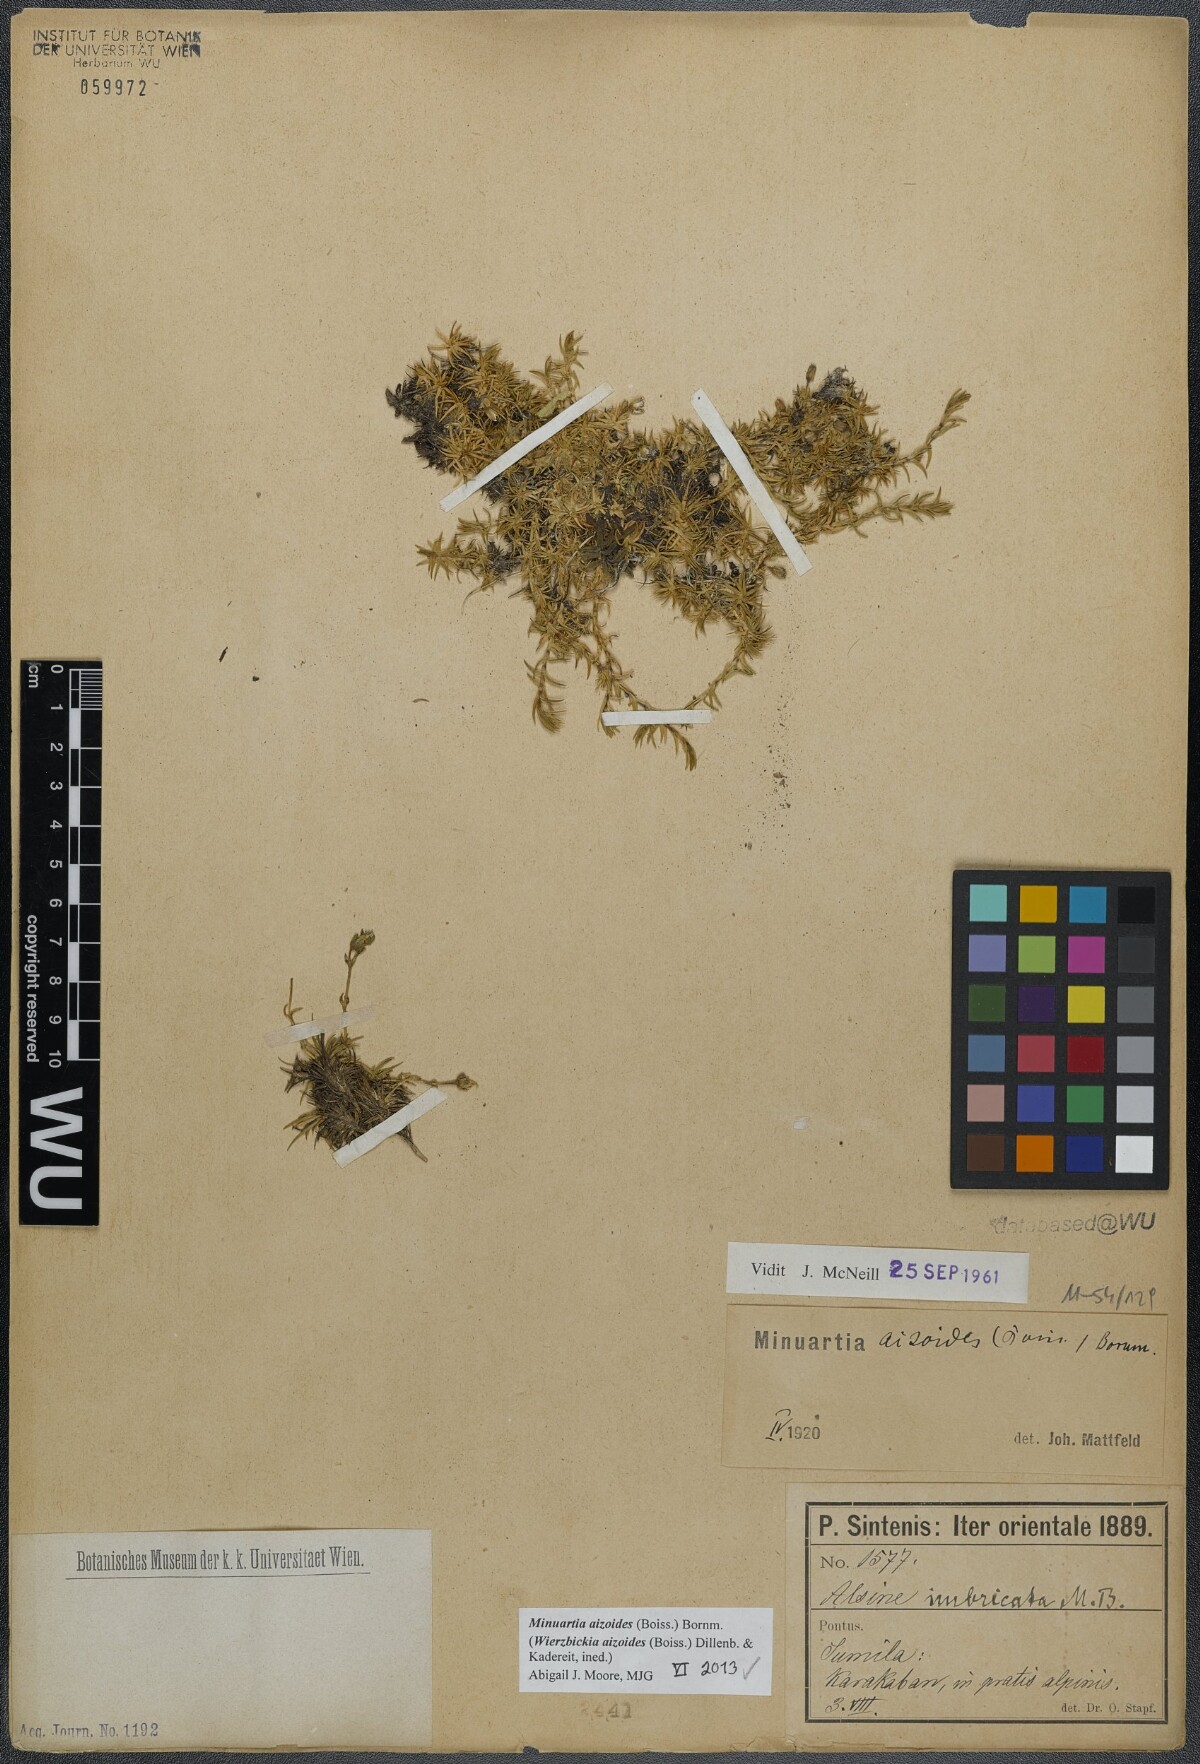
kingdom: Plantae
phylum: Tracheophyta
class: Magnoliopsida
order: Caryophyllales
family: Caryophyllaceae
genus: Pseudocherleria
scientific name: Pseudocherleria aizoides
